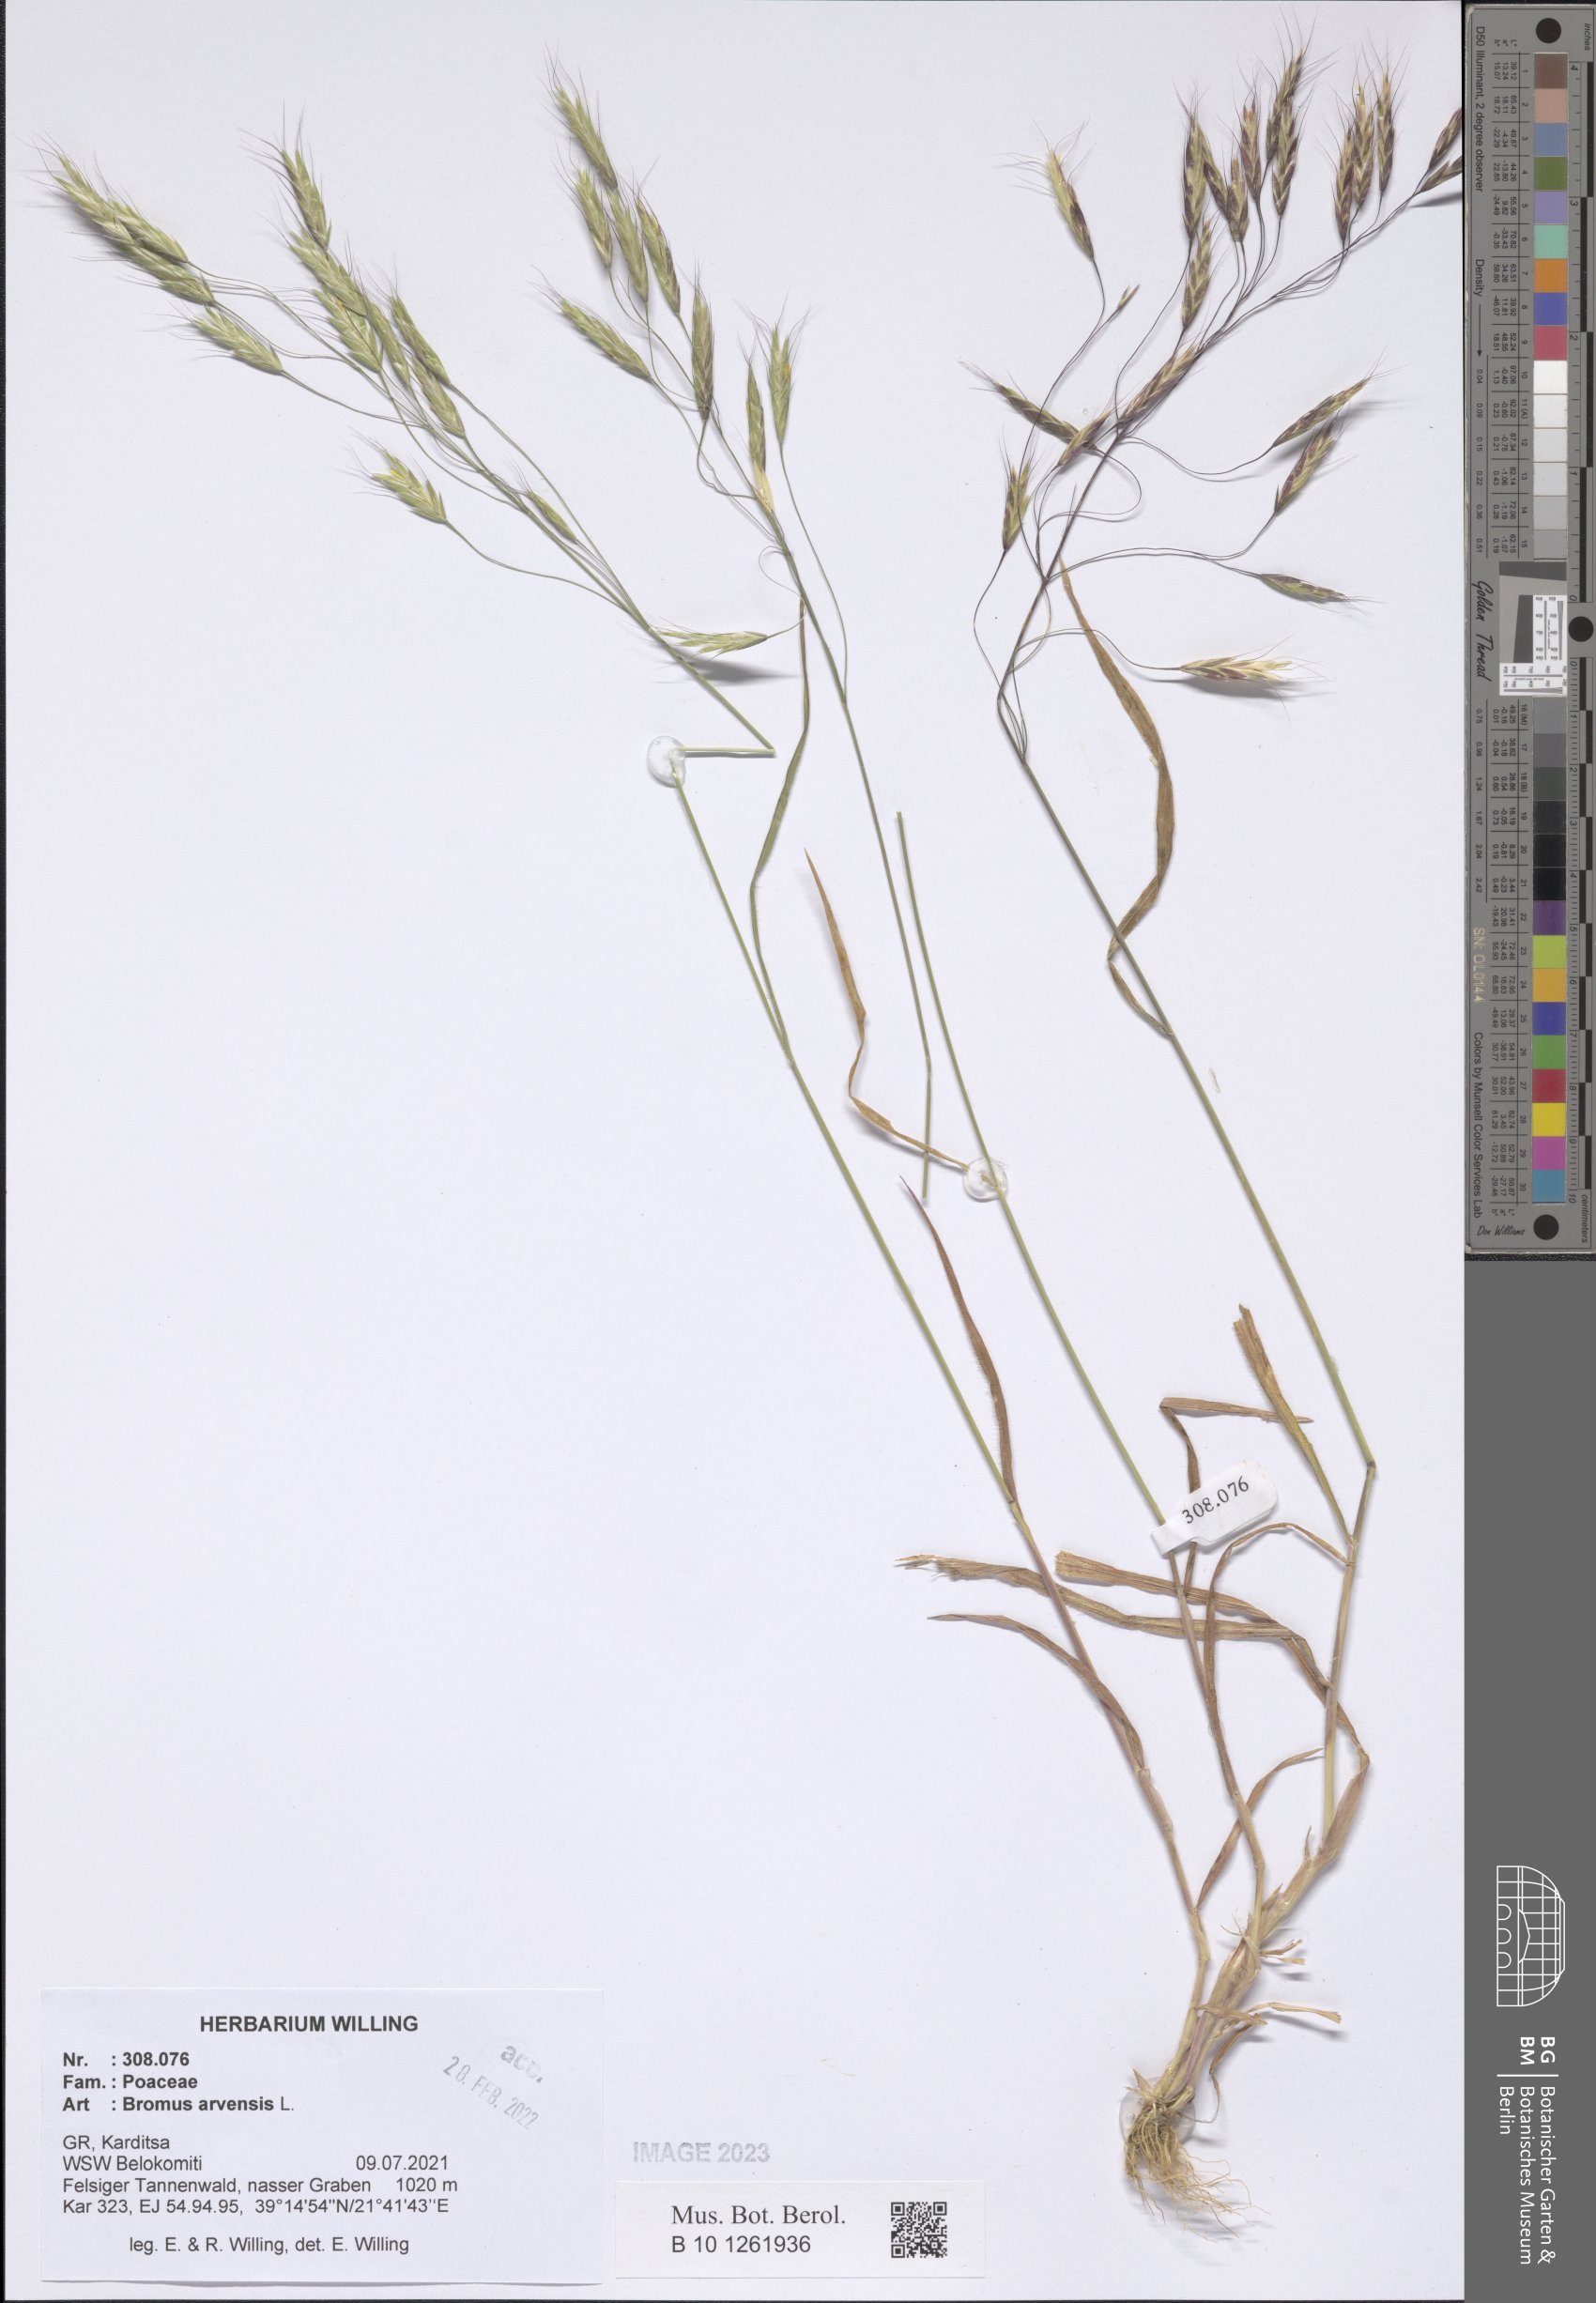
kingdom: Plantae
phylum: Tracheophyta
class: Liliopsida
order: Poales
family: Poaceae
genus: Bromus
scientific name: Bromus arvensis
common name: Field brome
